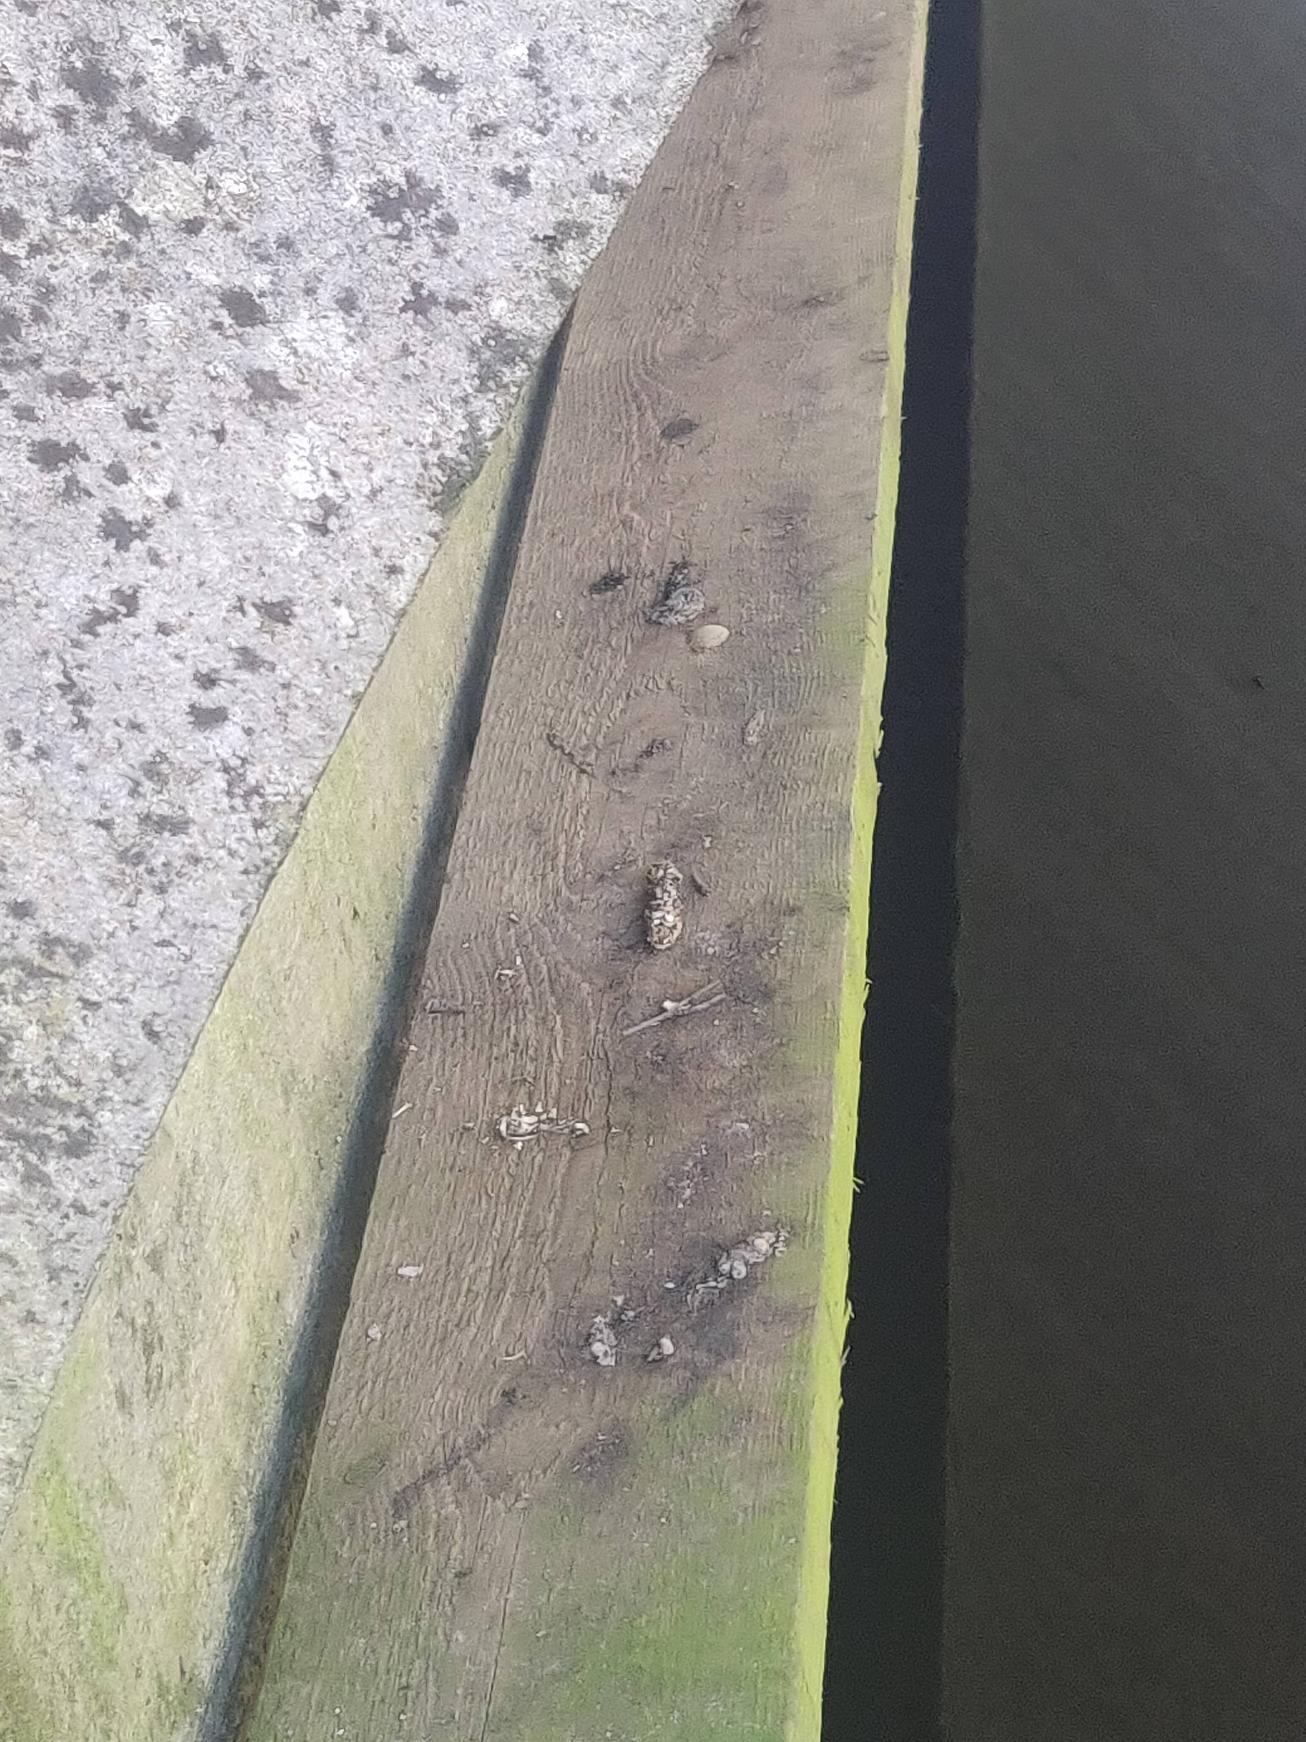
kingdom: Animalia
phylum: Chordata
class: Mammalia
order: Carnivora
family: Mustelidae
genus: Lutra
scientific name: Lutra lutra
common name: Odder
